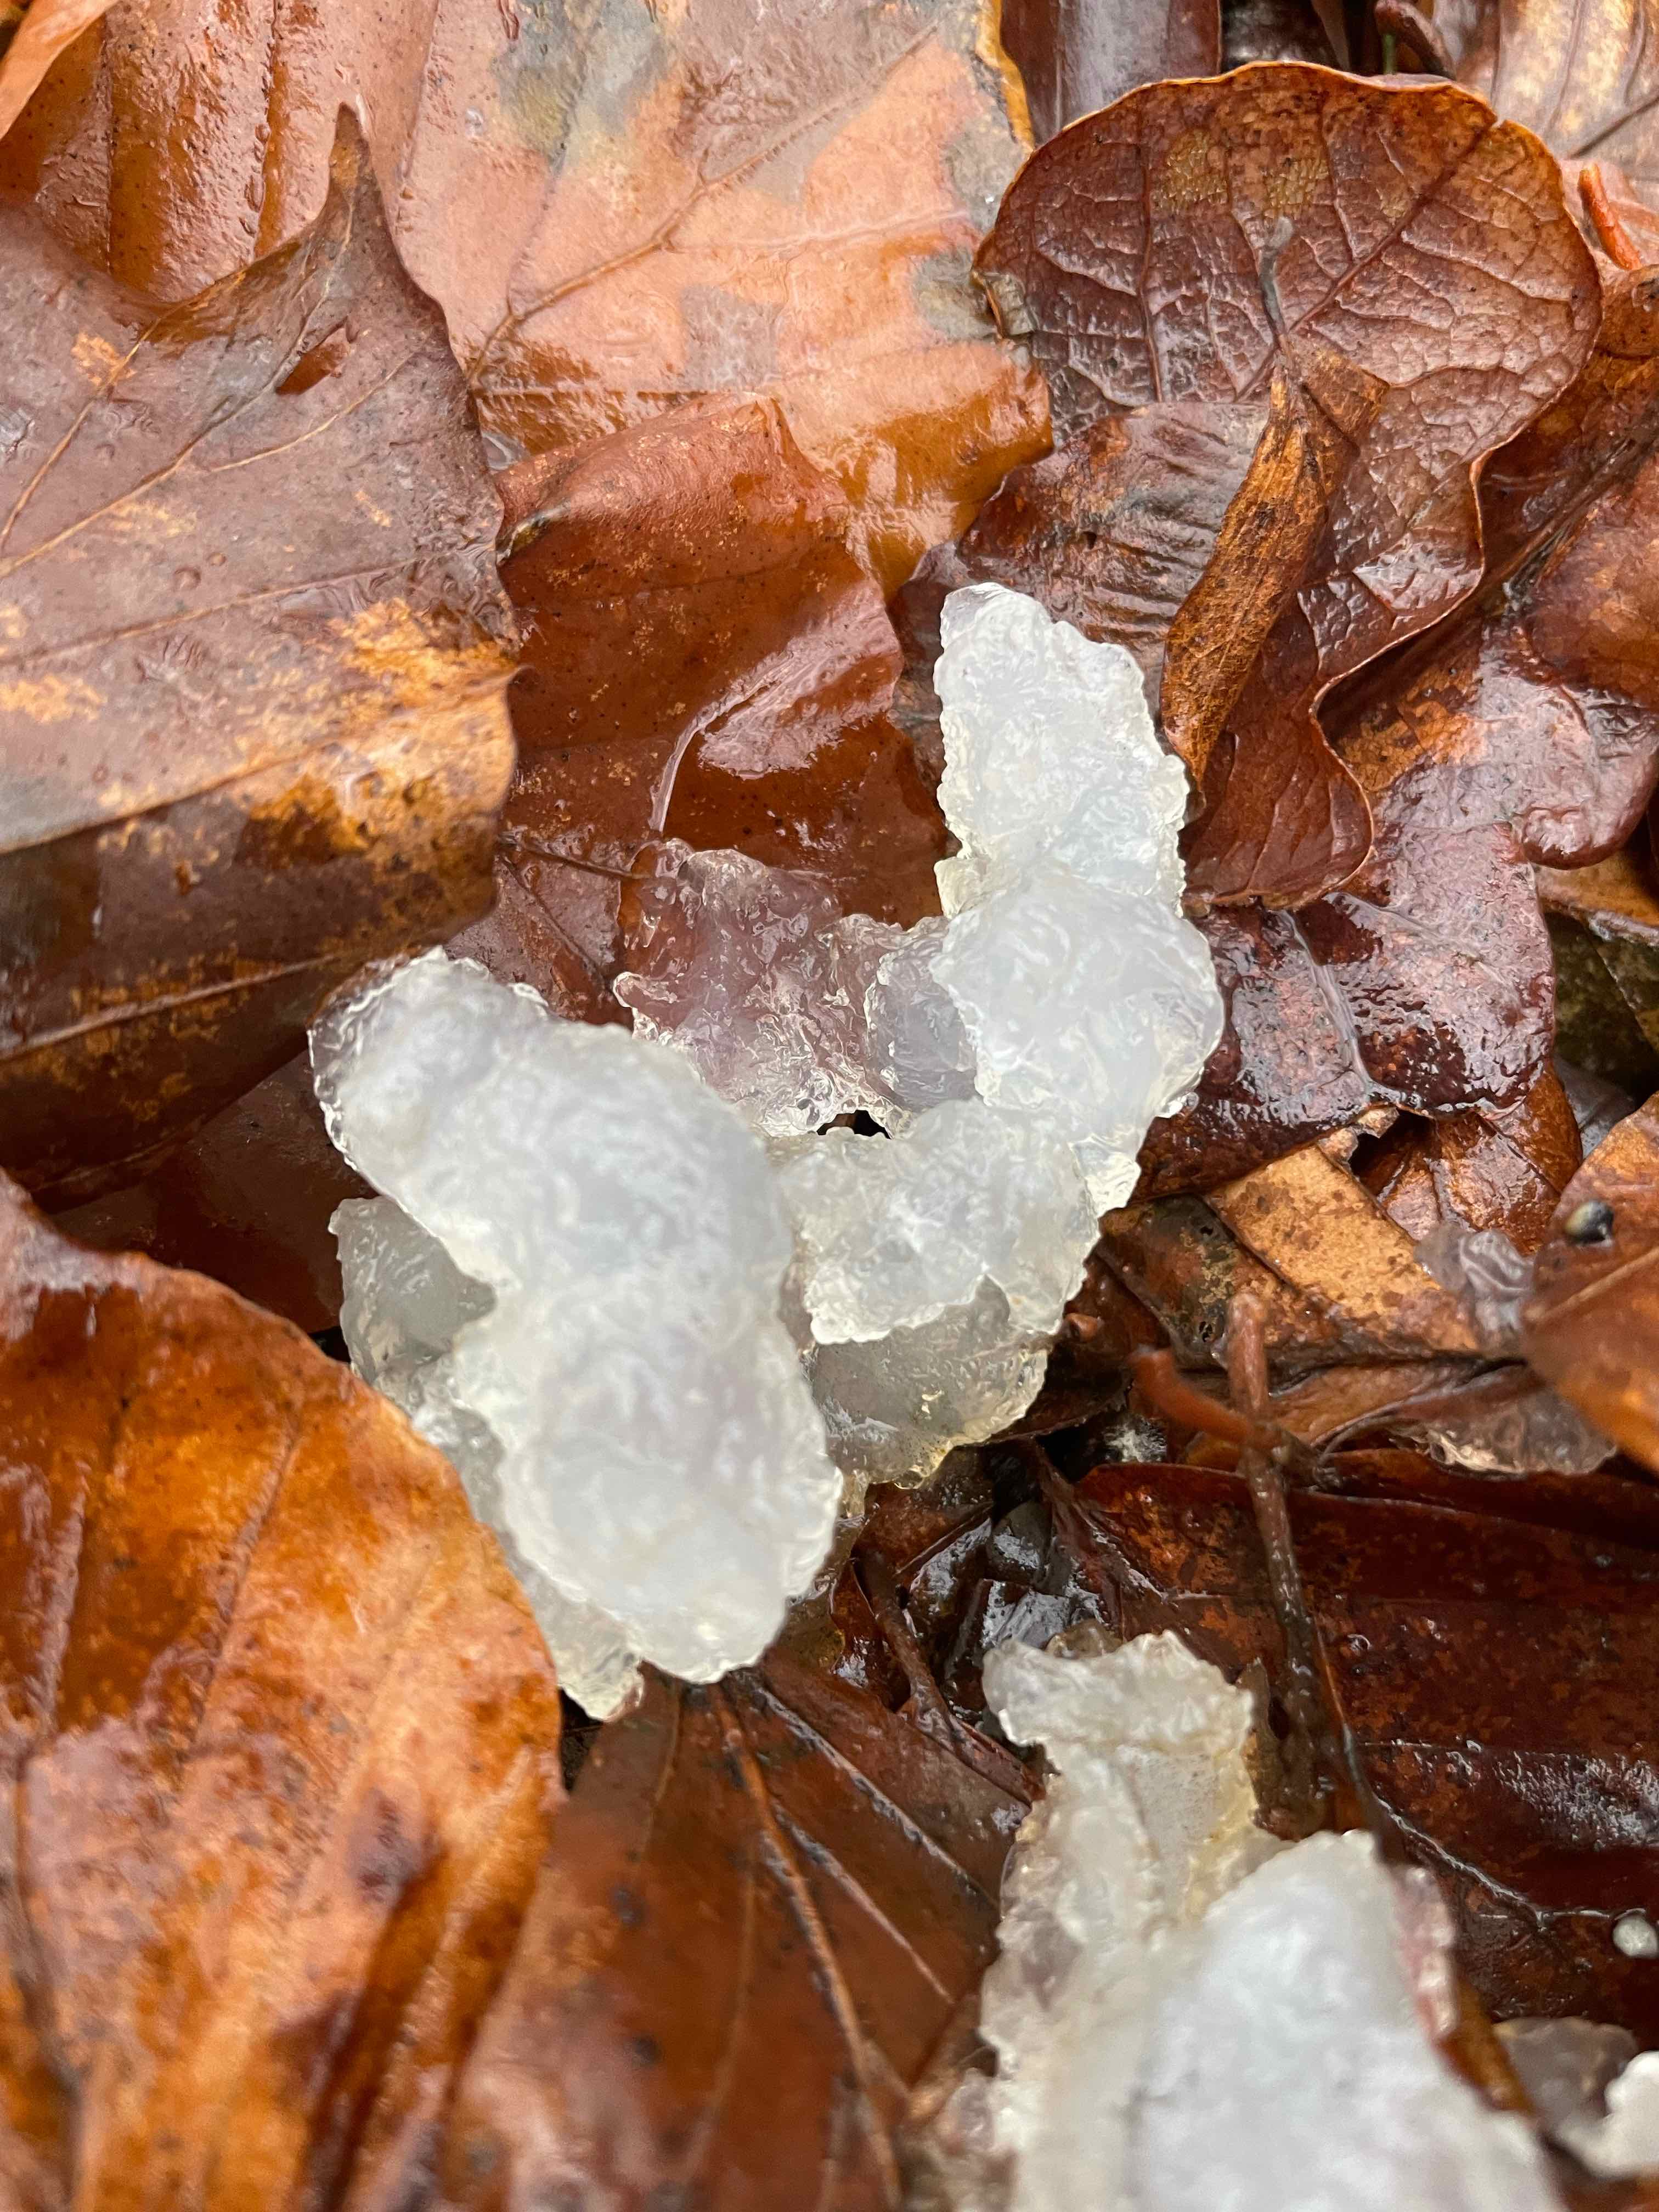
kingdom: Fungi
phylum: Basidiomycota
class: Agaricomycetes
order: Auriculariales
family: Hyaloriaceae
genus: Myxarium
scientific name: Myxarium nucleatum
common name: klar bævretop
